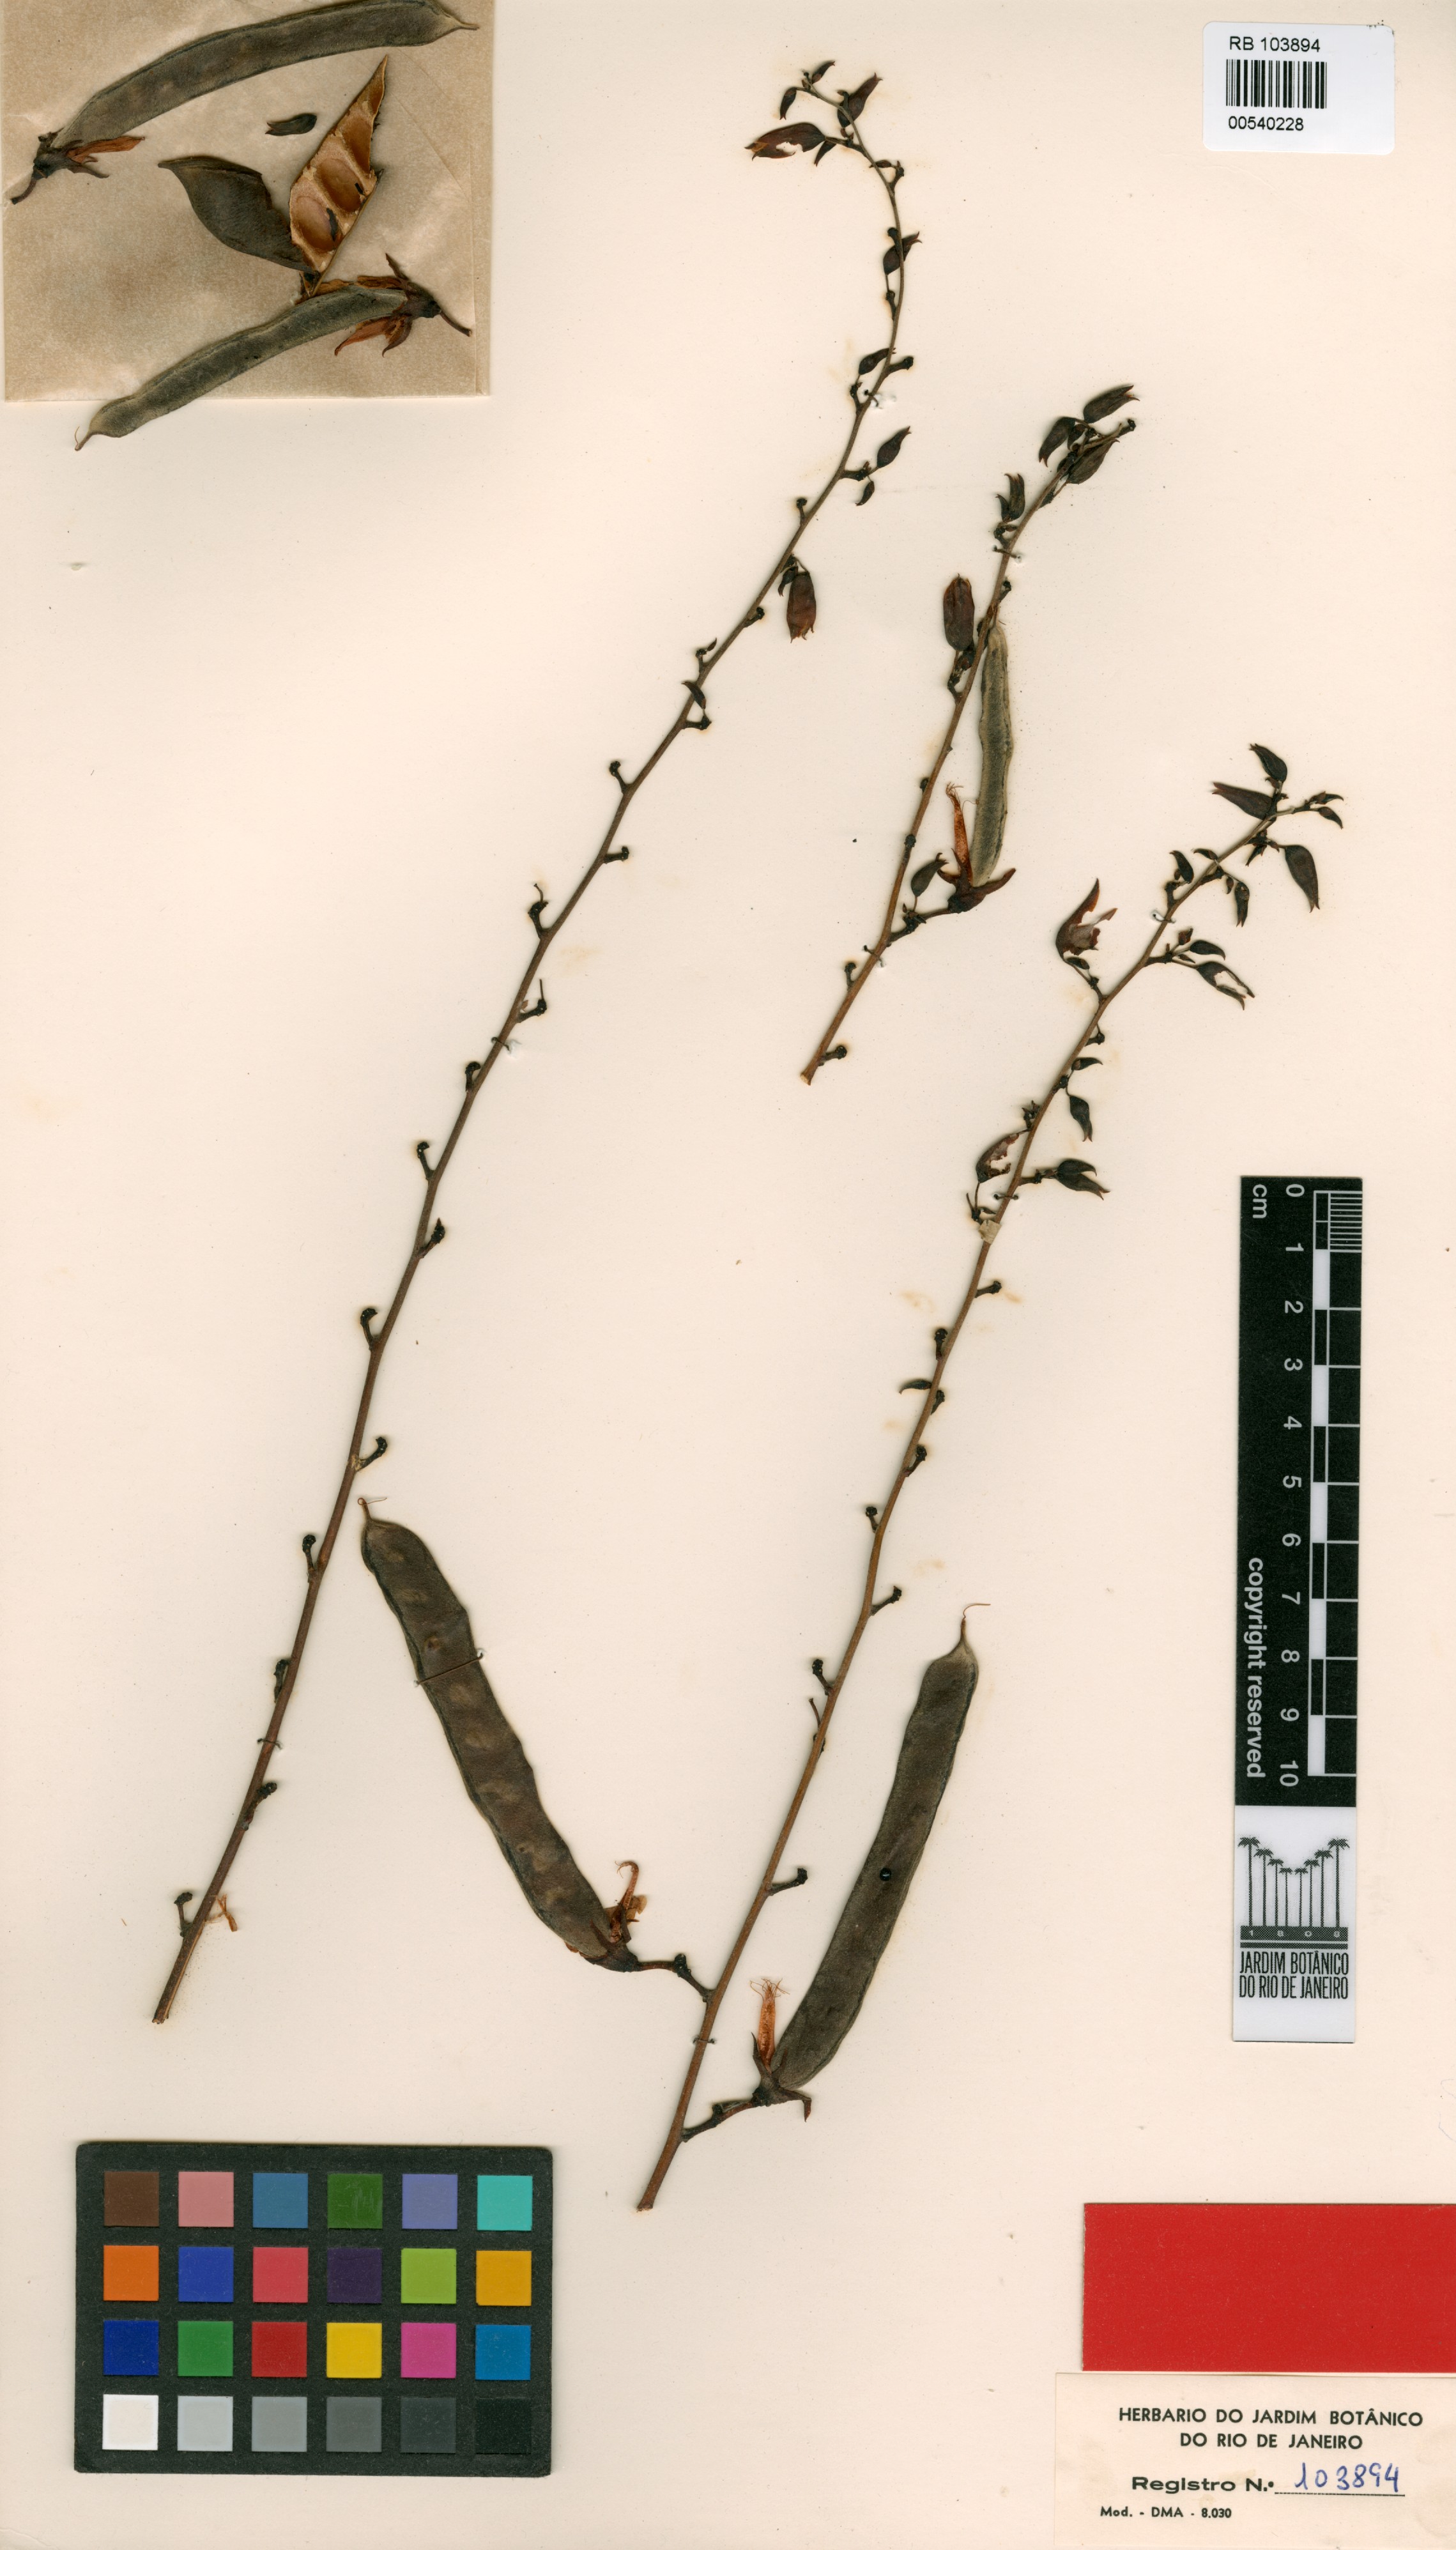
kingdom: Plantae
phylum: Tracheophyta
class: Magnoliopsida
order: Fabales
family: Fabaceae
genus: Dioclea
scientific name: Dioclea albiflora
